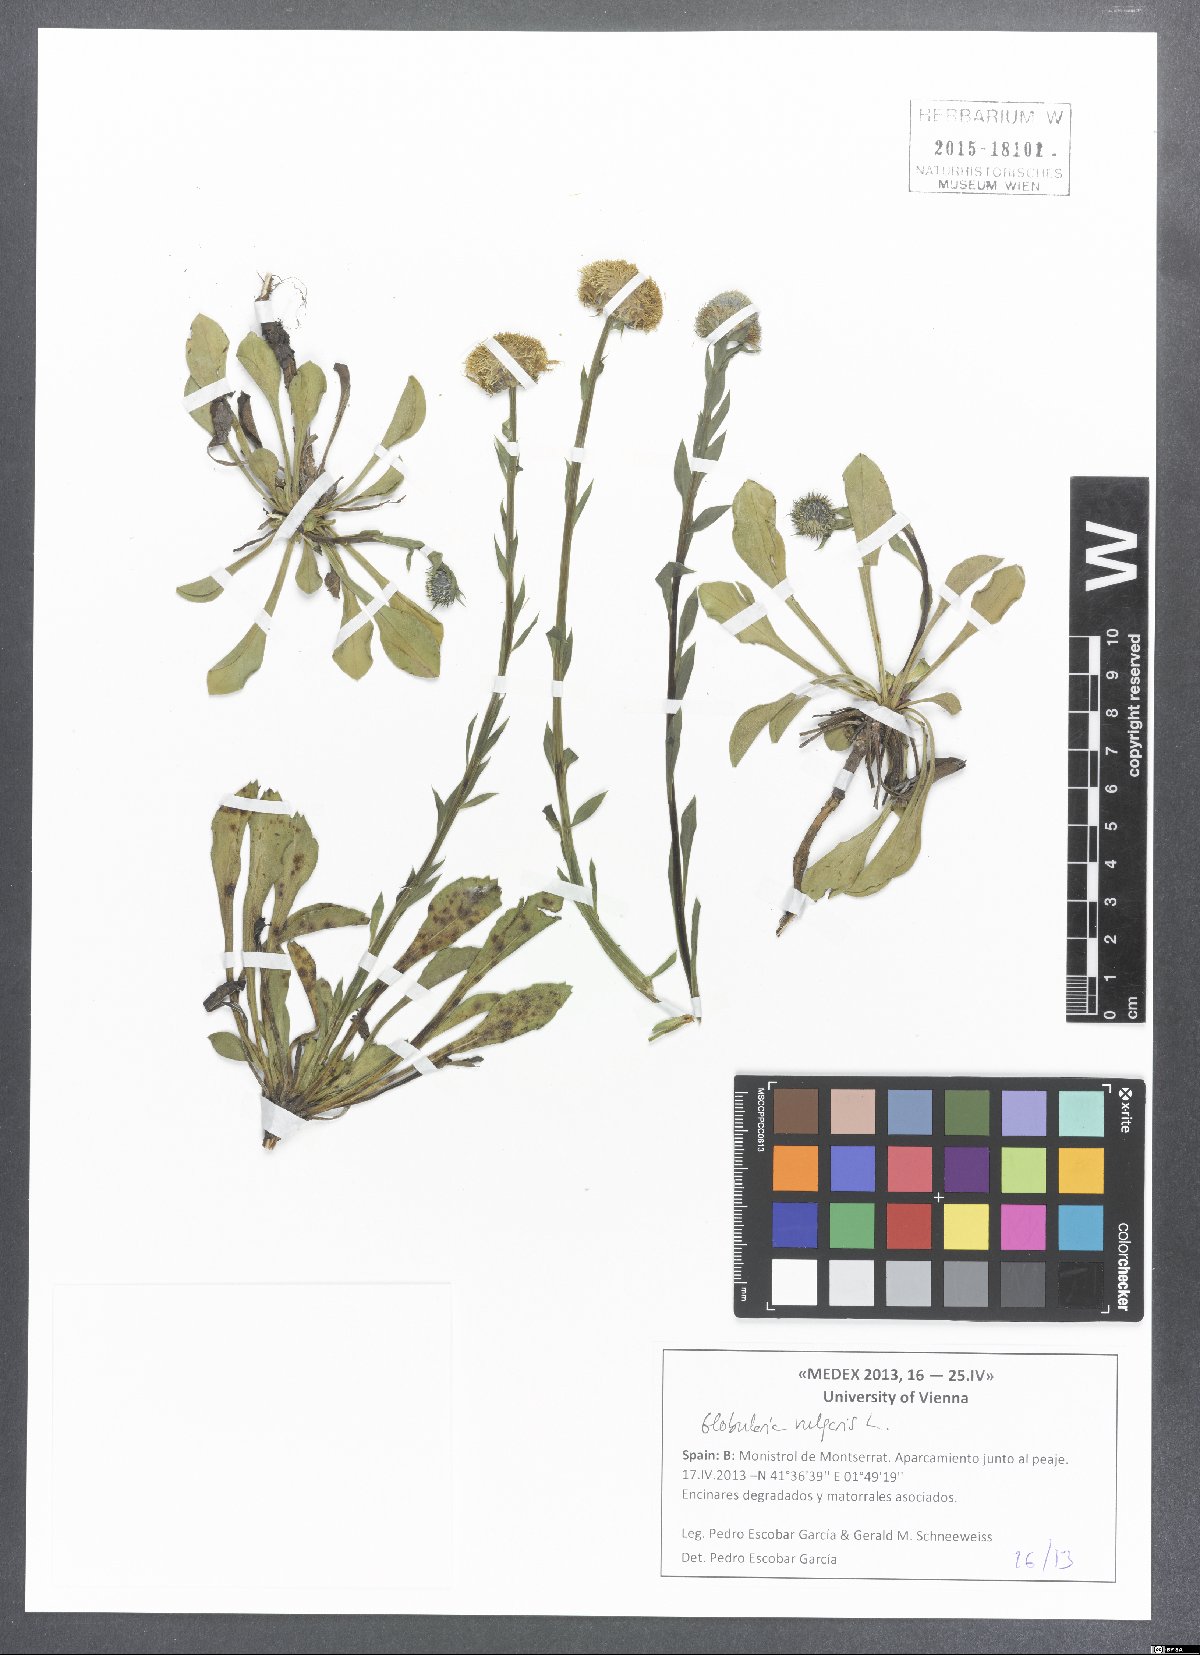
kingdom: Plantae
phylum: Tracheophyta
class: Magnoliopsida
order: Lamiales
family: Plantaginaceae
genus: Globularia
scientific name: Globularia vulgaris
